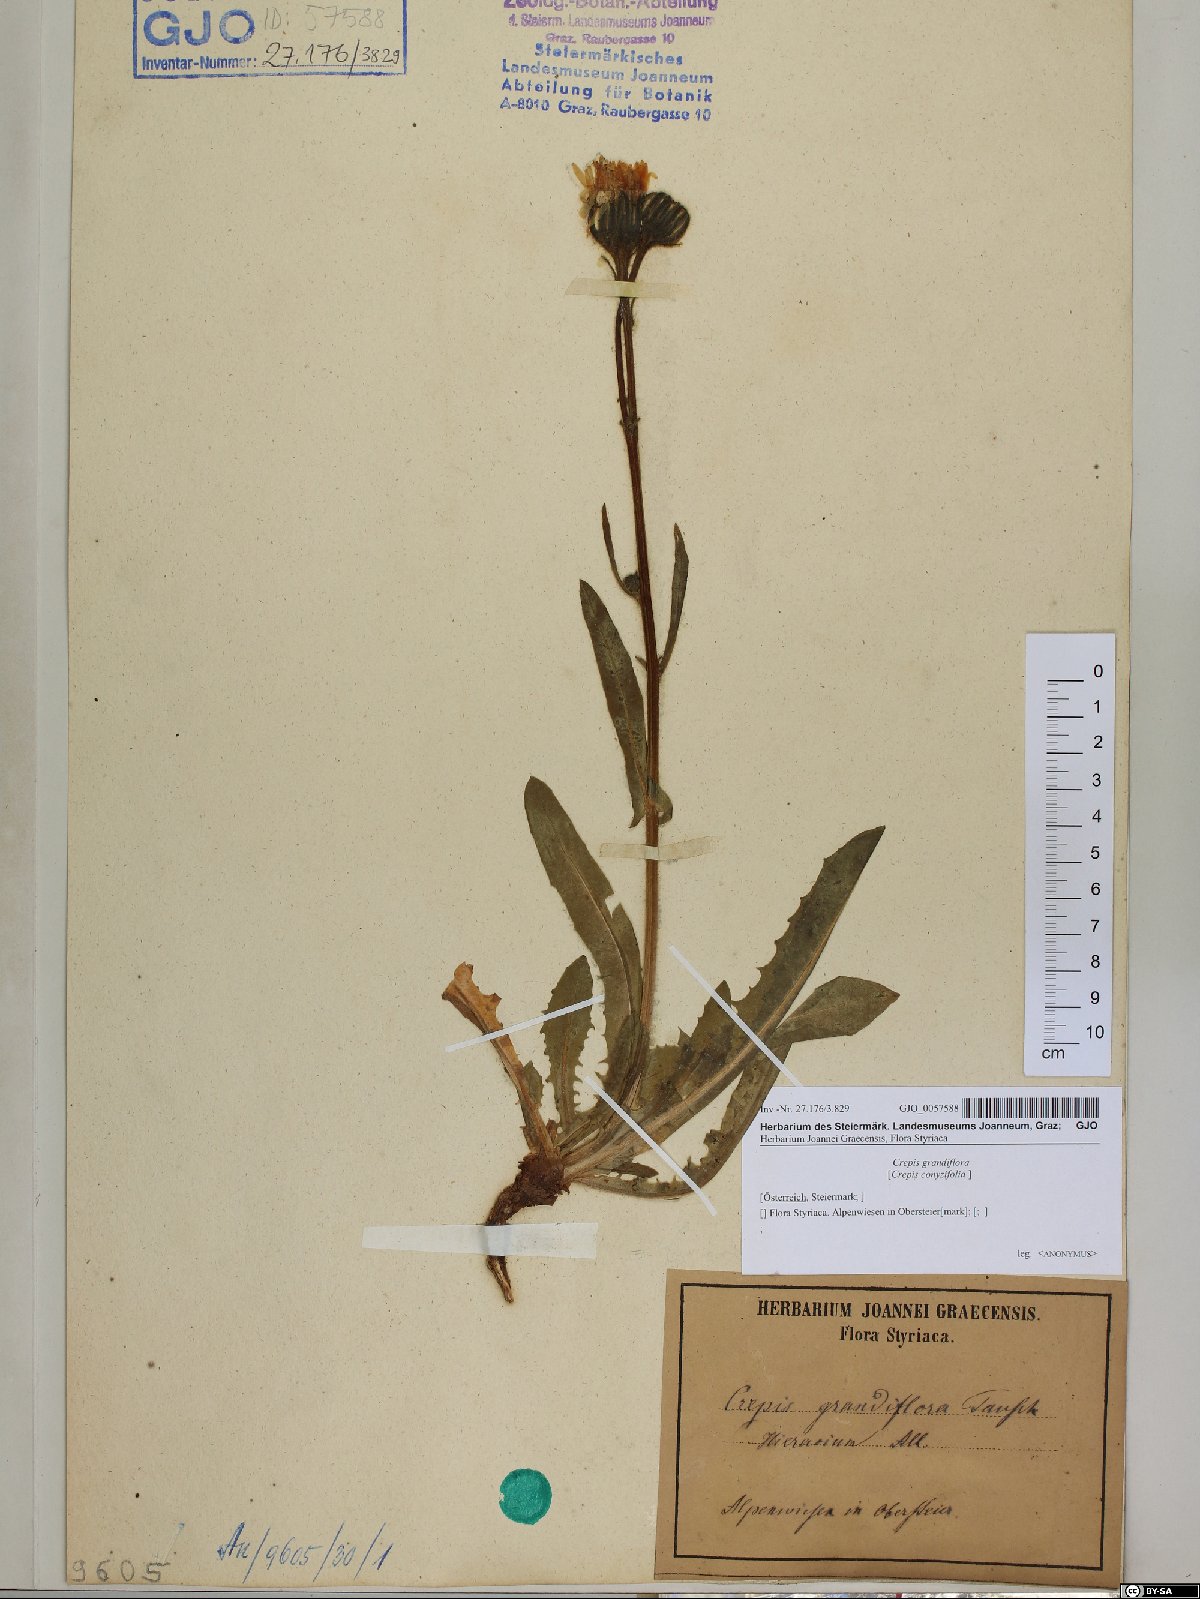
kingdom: Plantae
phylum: Tracheophyta
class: Magnoliopsida
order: Asterales
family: Asteraceae
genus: Crepis
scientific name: Crepis pyrenaica
